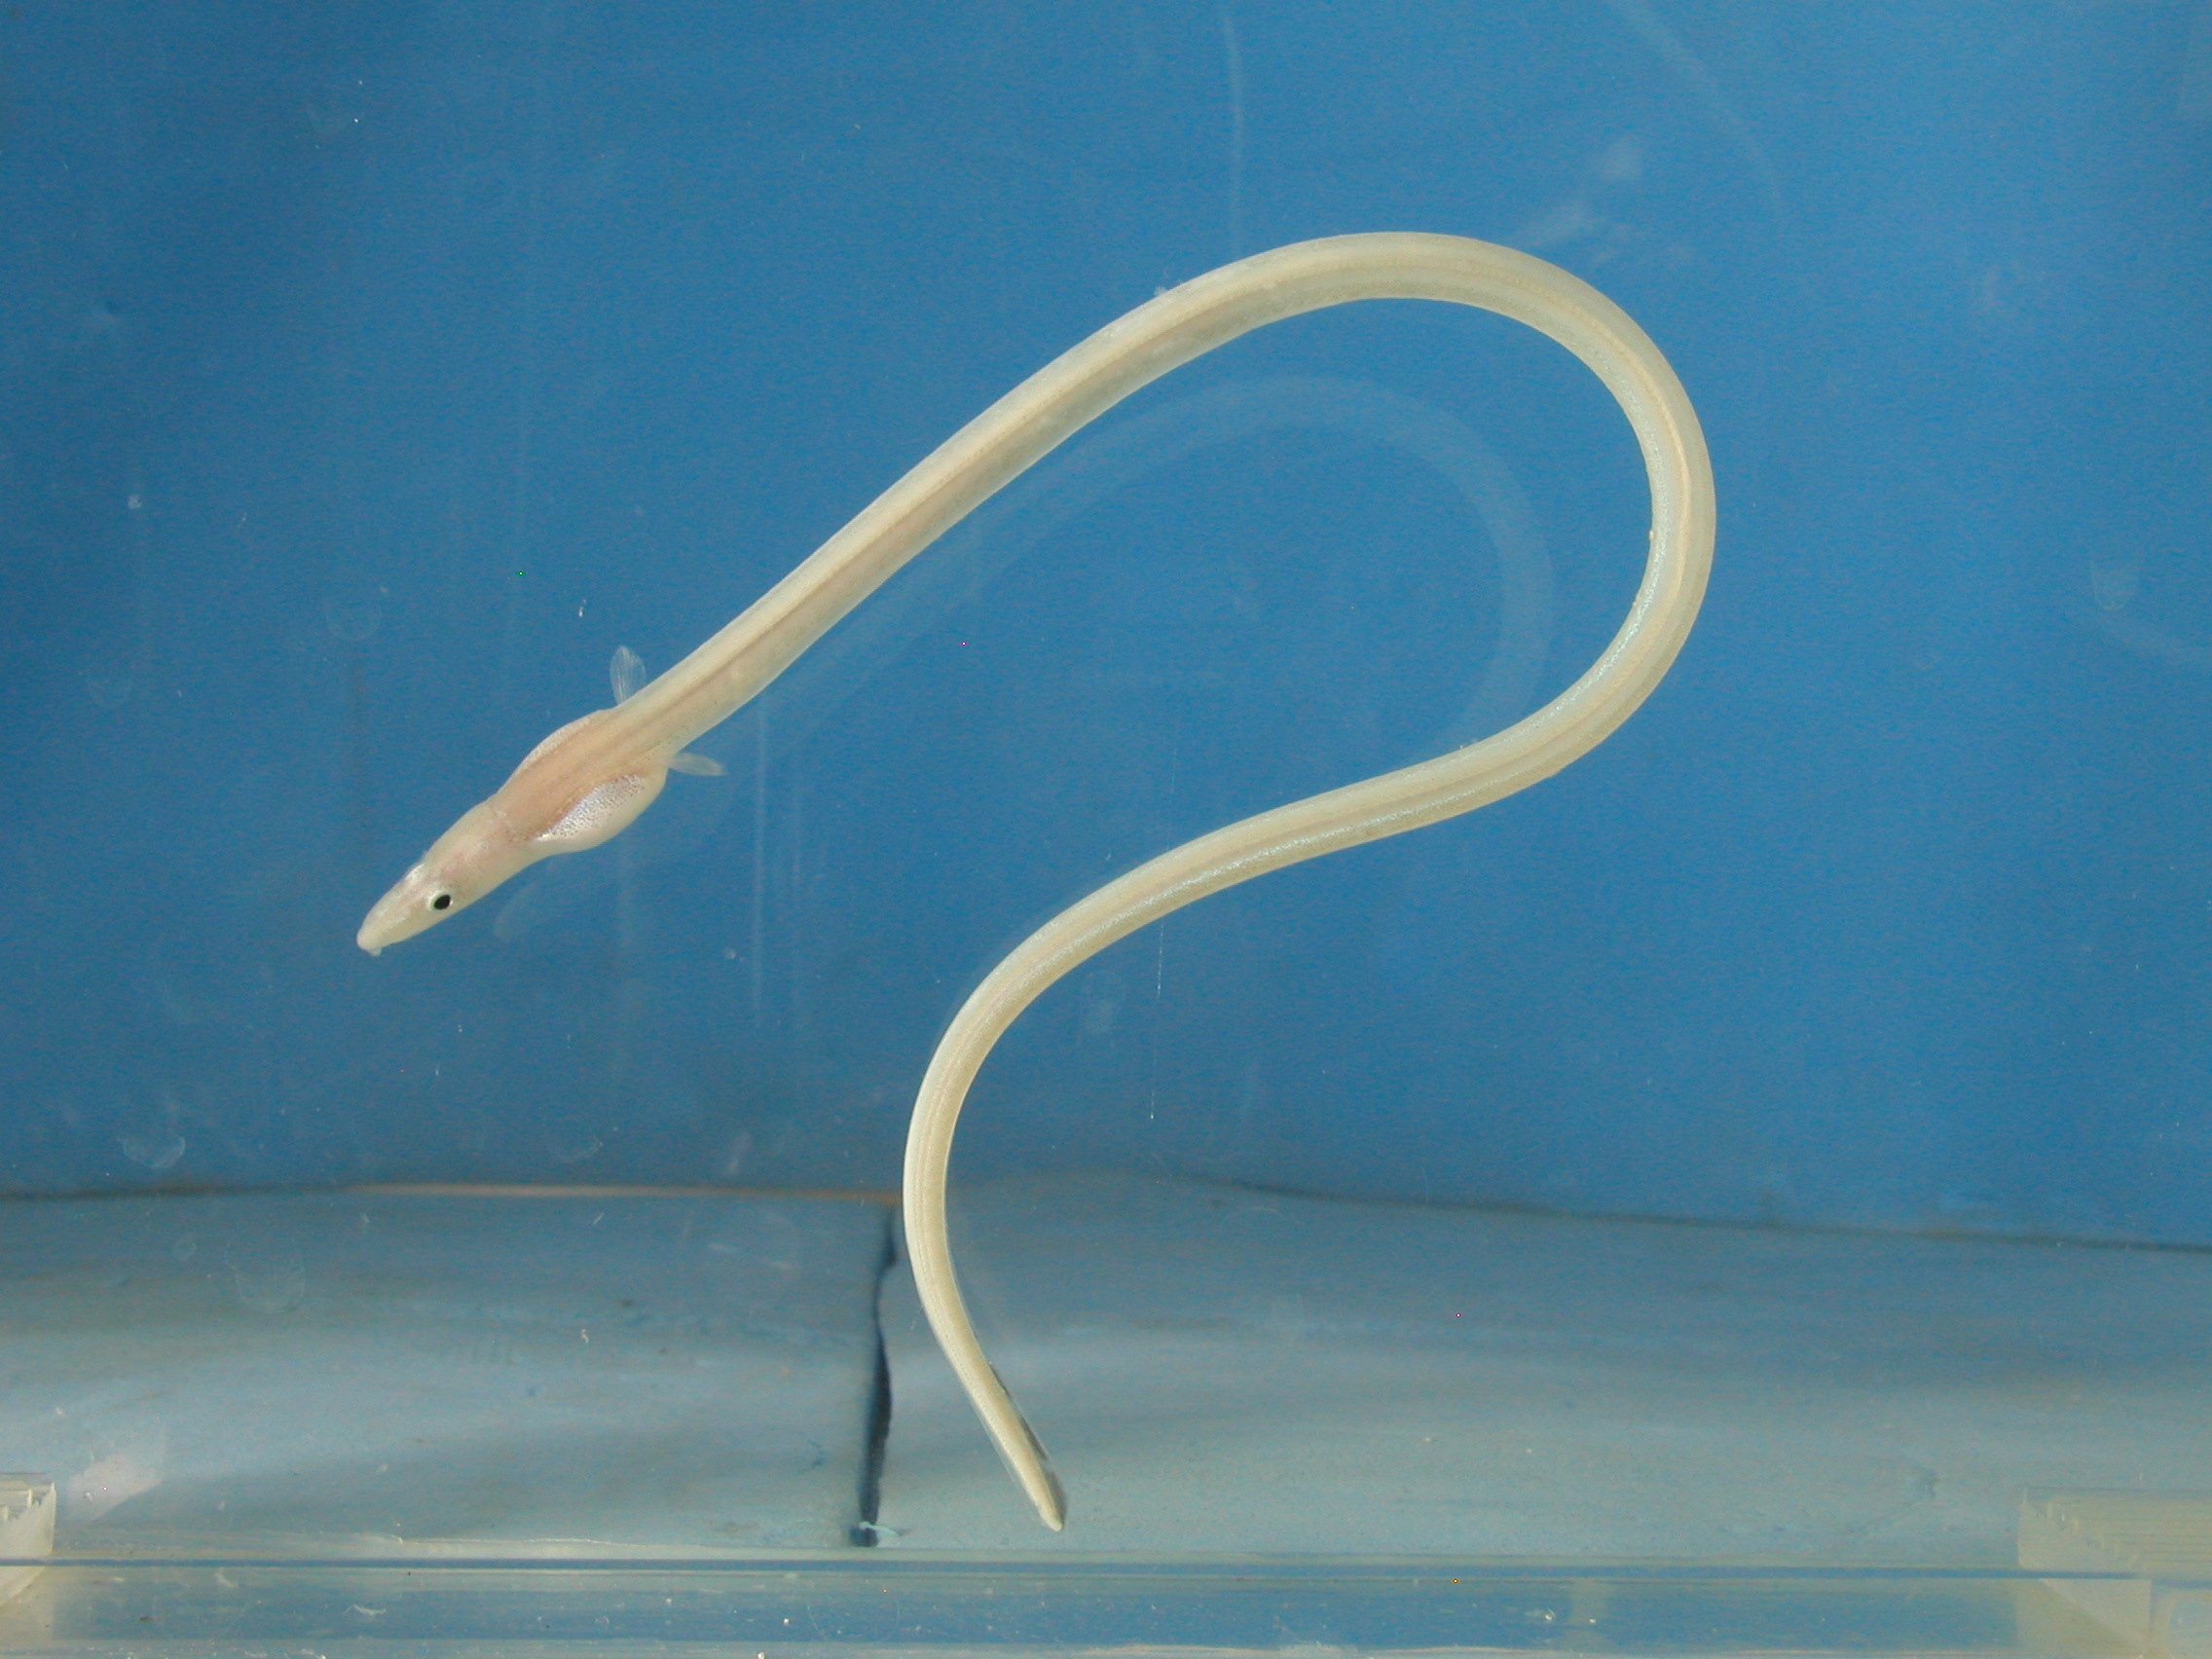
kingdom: Animalia
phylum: Chordata
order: Anguilliformes
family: Ophichthidae
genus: Phyllophichthus
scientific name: Phyllophichthus xenodontus
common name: Flappy snake eel
